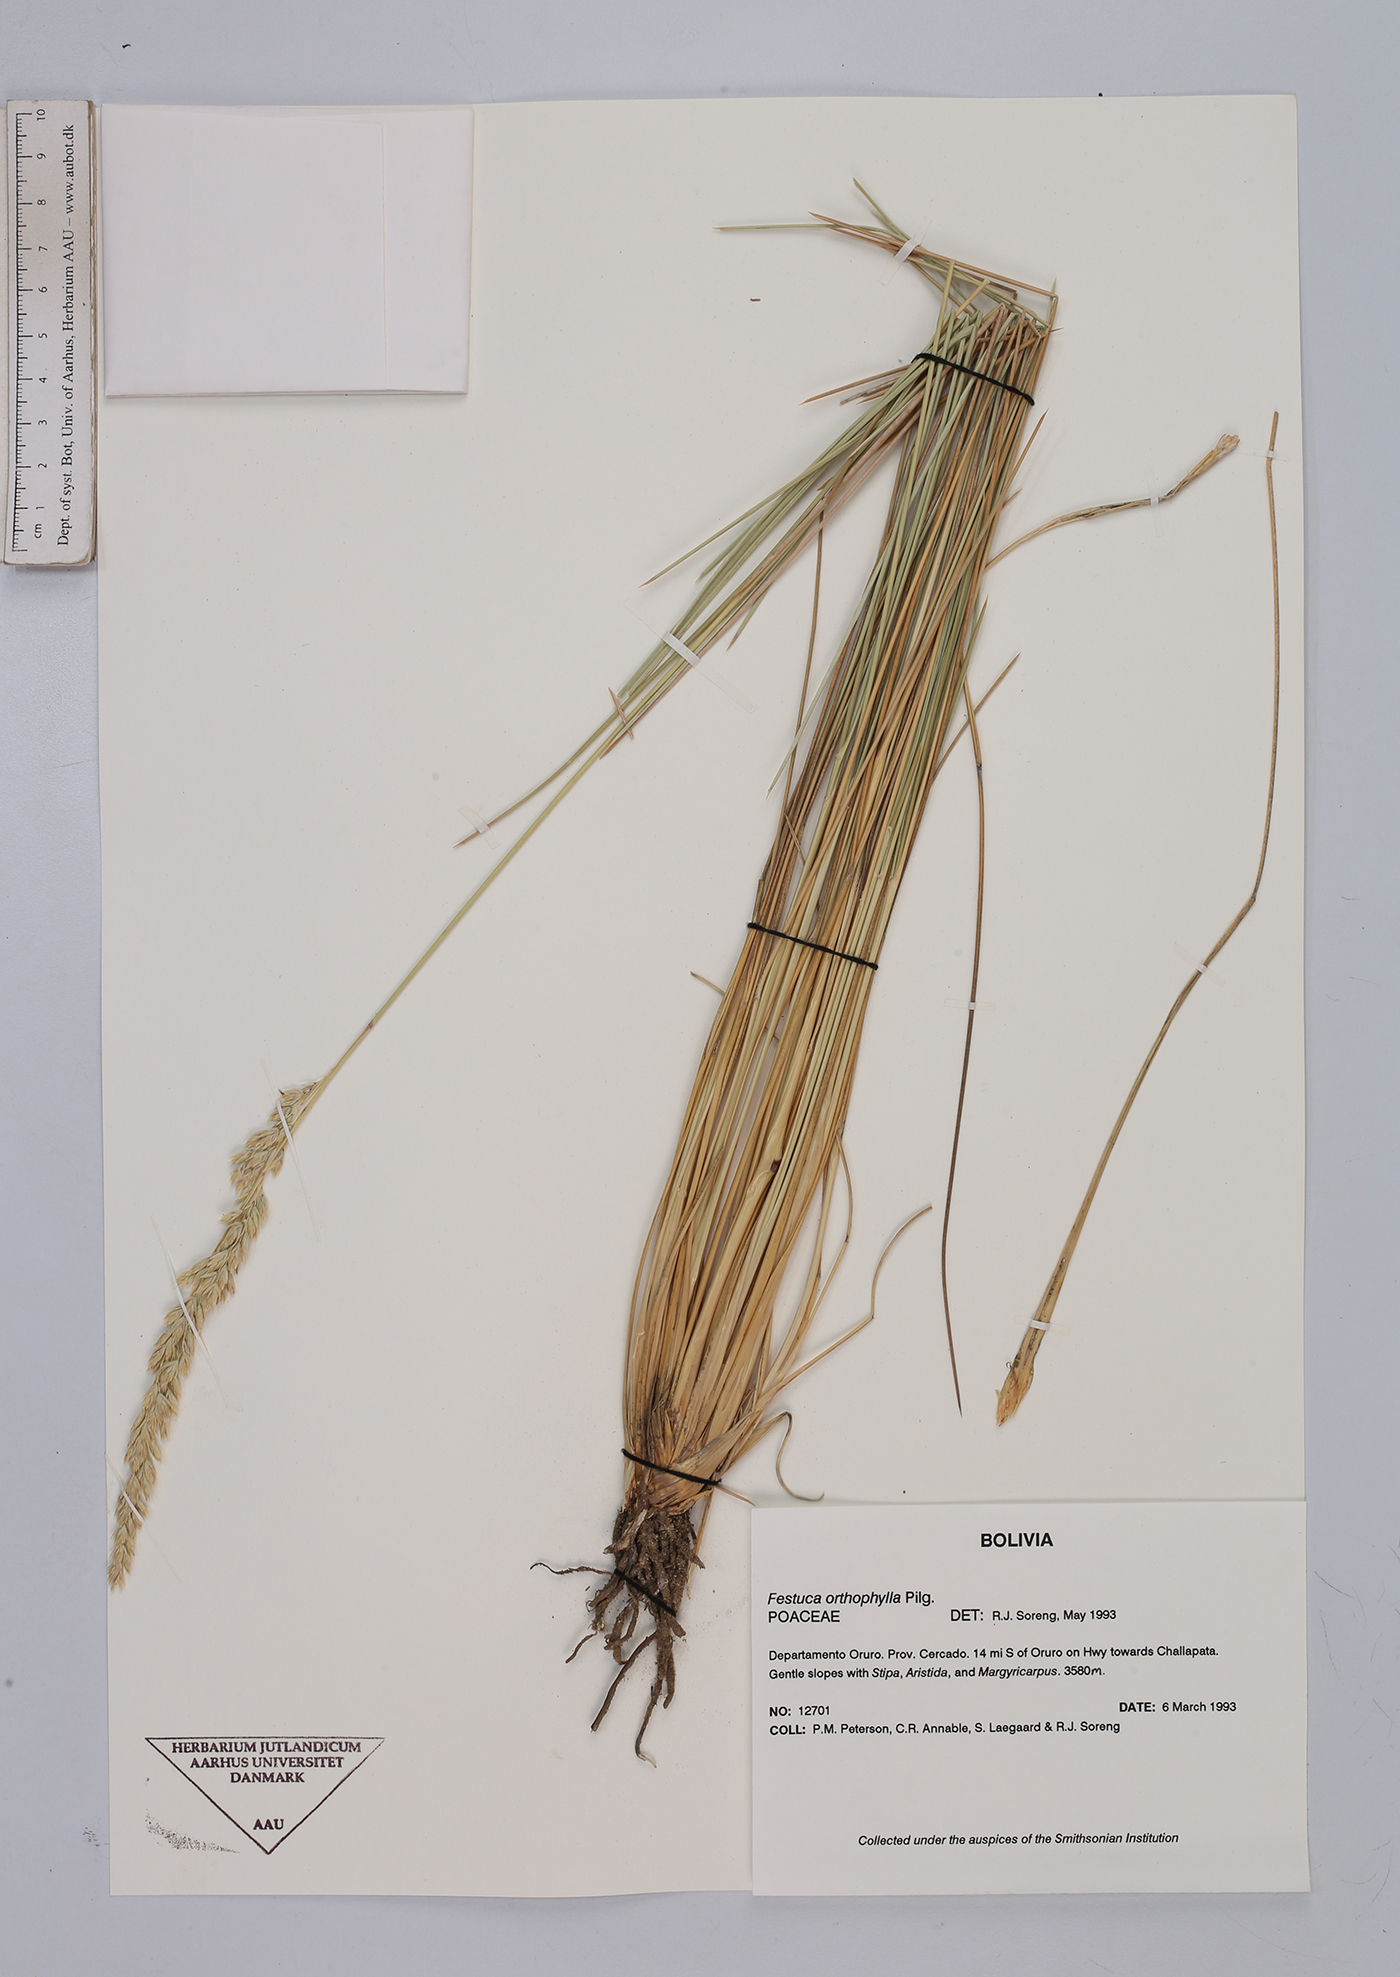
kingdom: Plantae
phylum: Tracheophyta
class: Liliopsida
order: Poales
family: Poaceae
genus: Festuca
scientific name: Festuca chrysophylla
